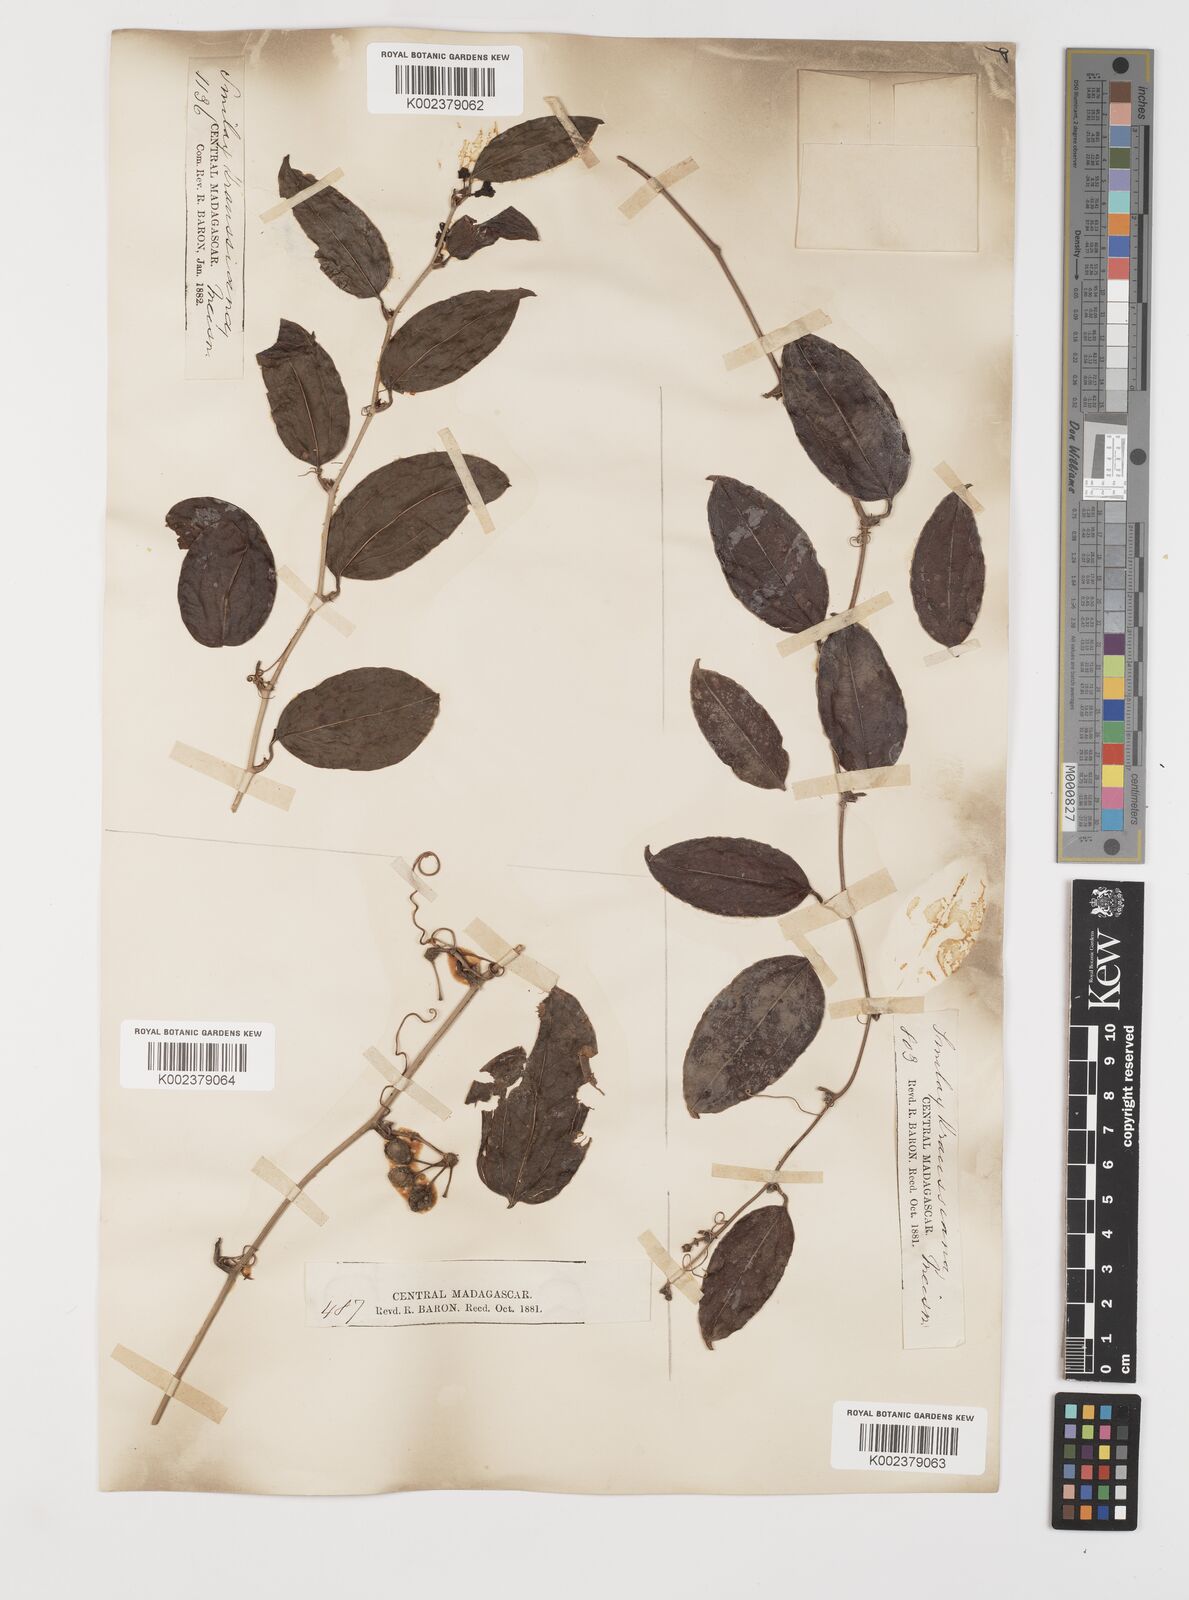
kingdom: Plantae
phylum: Tracheophyta
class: Liliopsida
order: Liliales
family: Smilacaceae
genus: Smilax
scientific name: Smilax anceps
